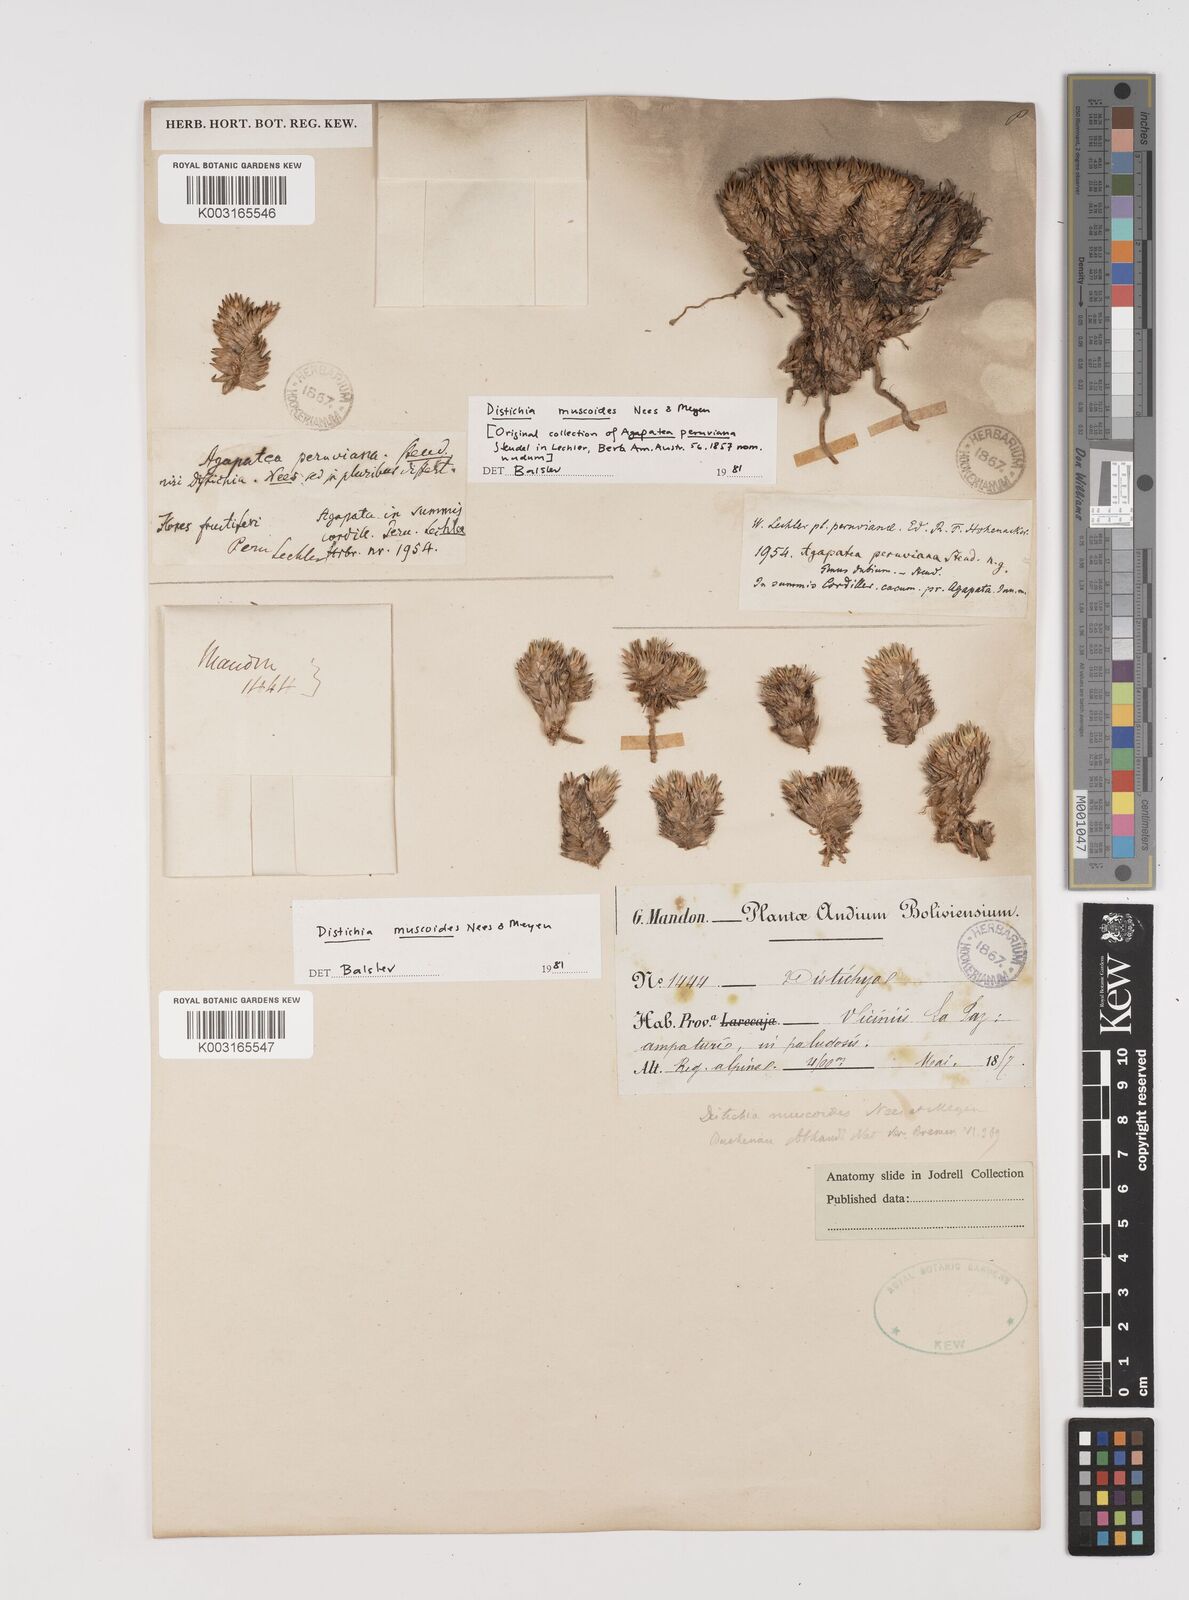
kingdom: Plantae
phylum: Tracheophyta
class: Liliopsida
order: Poales
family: Juncaceae
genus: Distichia
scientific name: Distichia muscoides
